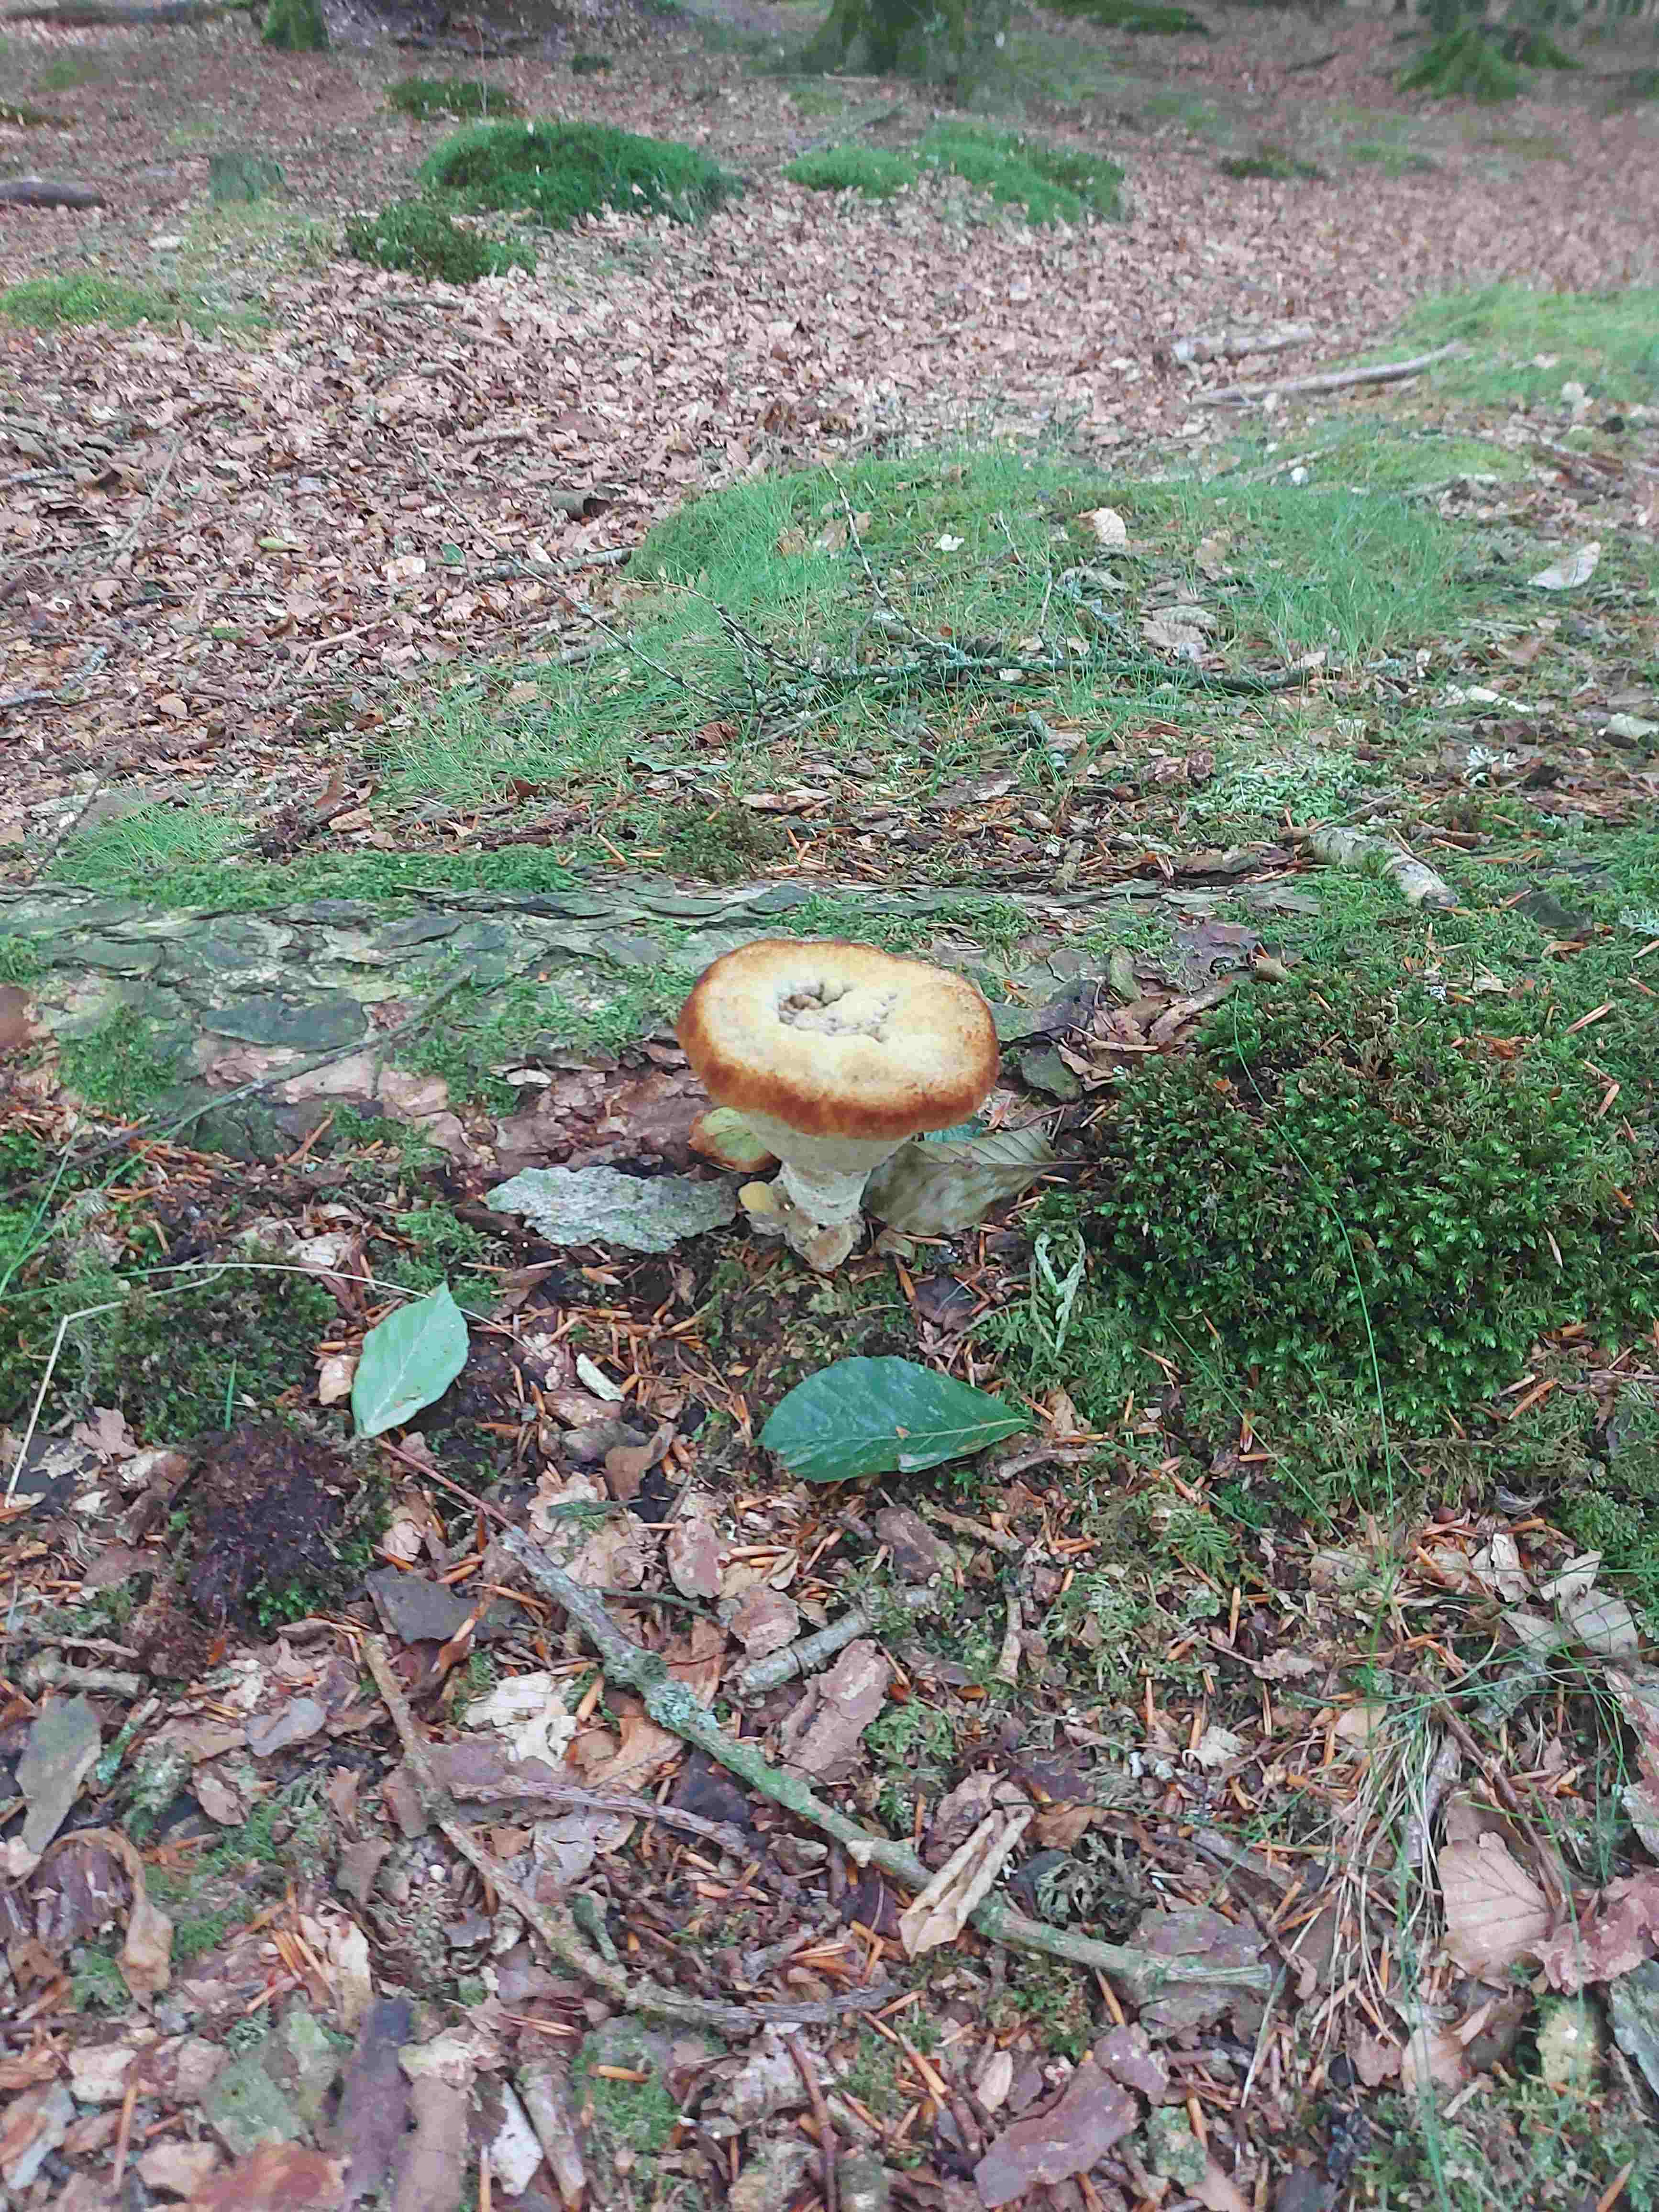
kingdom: Fungi
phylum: Basidiomycota
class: Agaricomycetes
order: Polyporales
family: Laetiporaceae
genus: Phaeolus
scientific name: Phaeolus schweinitzii
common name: brunporesvamp
